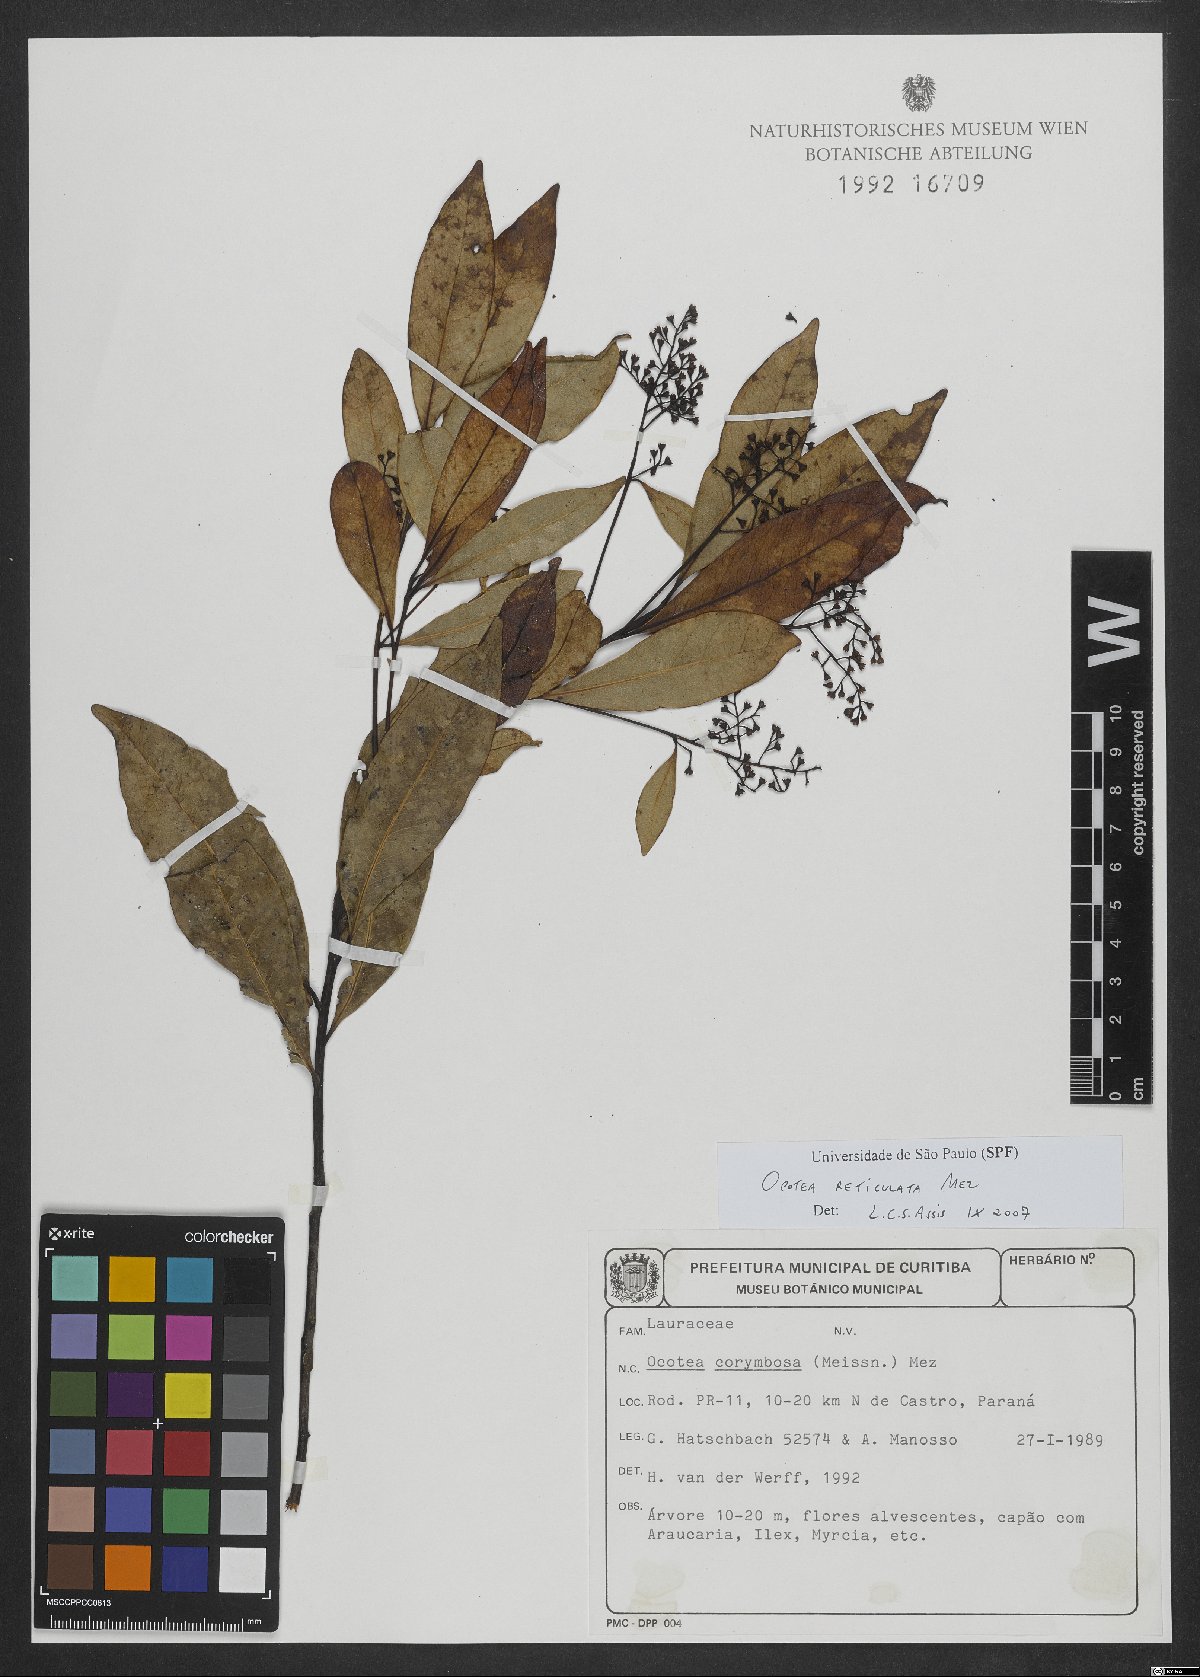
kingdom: Plantae
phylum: Tracheophyta
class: Magnoliopsida
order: Laurales
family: Lauraceae
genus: Mespilodaphne
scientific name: Mespilodaphne corymbosa
